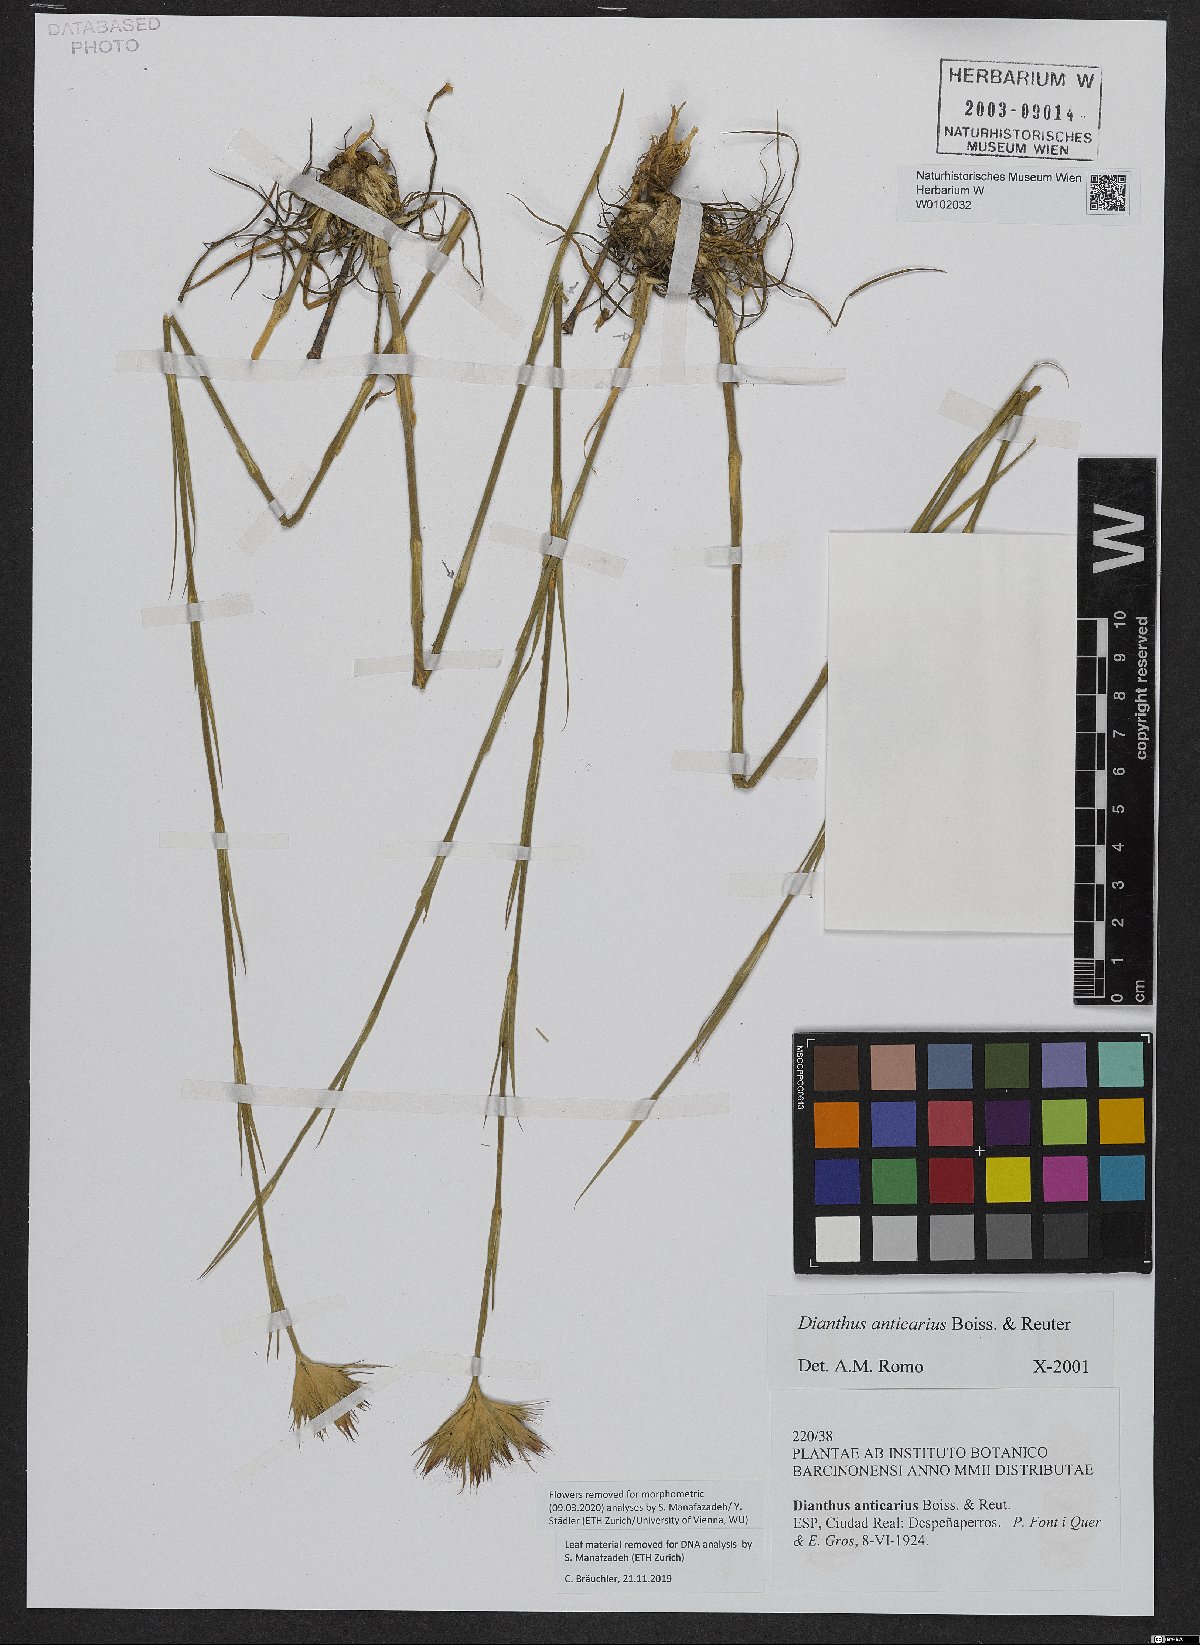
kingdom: Plantae
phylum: Tracheophyta
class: Magnoliopsida
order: Caryophyllales
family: Caryophyllaceae
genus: Dianthus
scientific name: Dianthus anticarius
